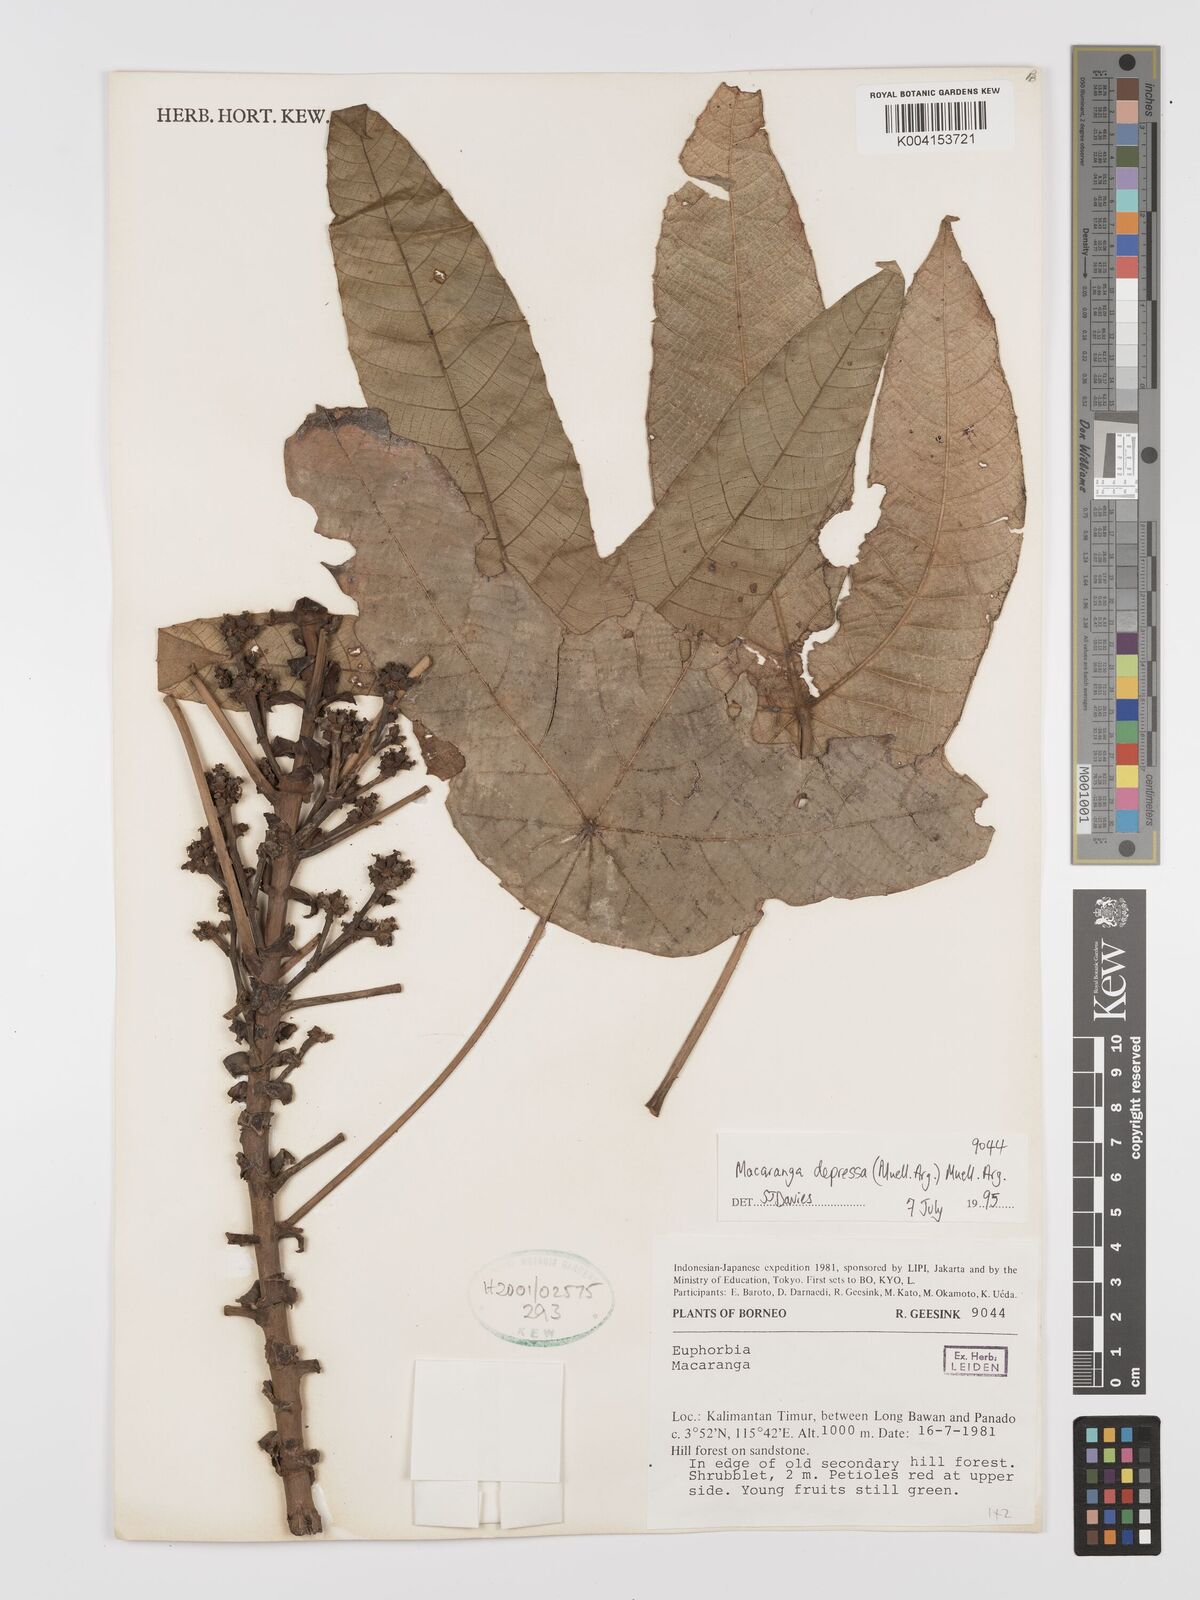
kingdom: Plantae
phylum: Tracheophyta
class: Magnoliopsida
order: Malpighiales
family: Euphorbiaceae
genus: Macaranga
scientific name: Macaranga depressa
